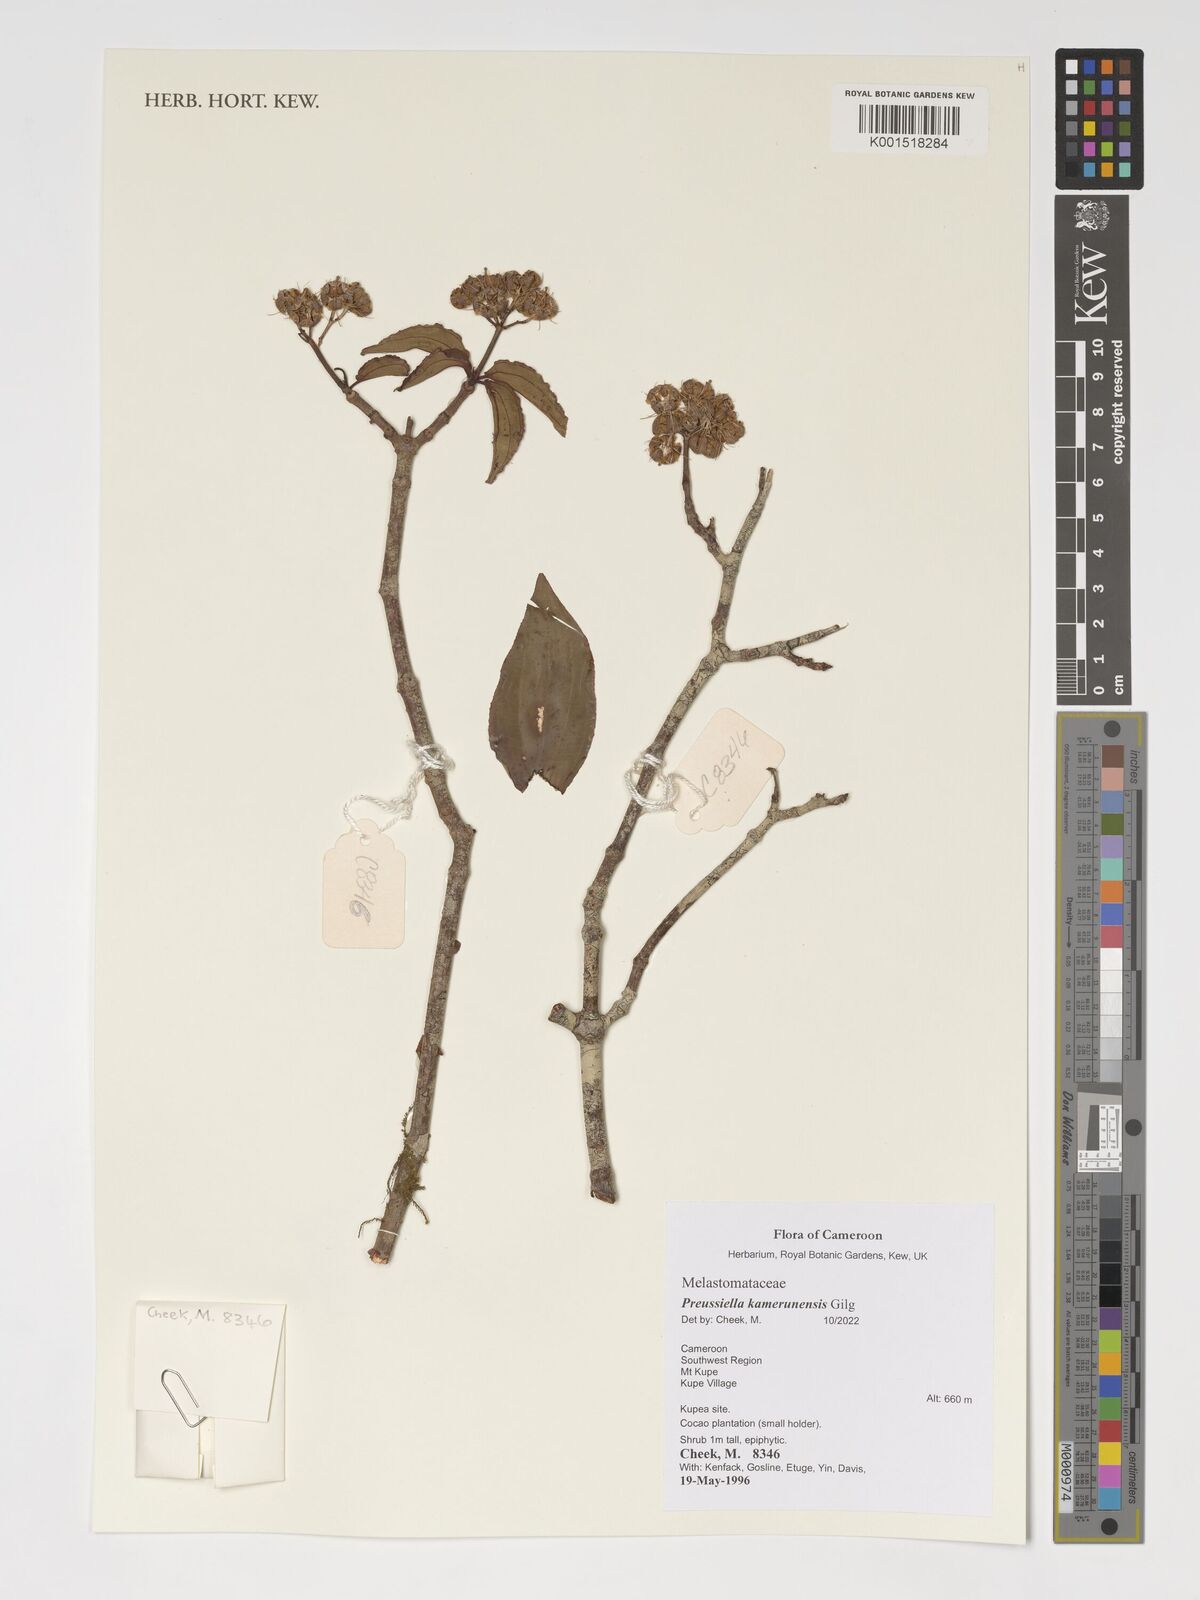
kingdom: Plantae
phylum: Tracheophyta
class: Magnoliopsida
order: Myrtales
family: Melastomataceae
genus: Preussiella
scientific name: Preussiella kamerunensis
